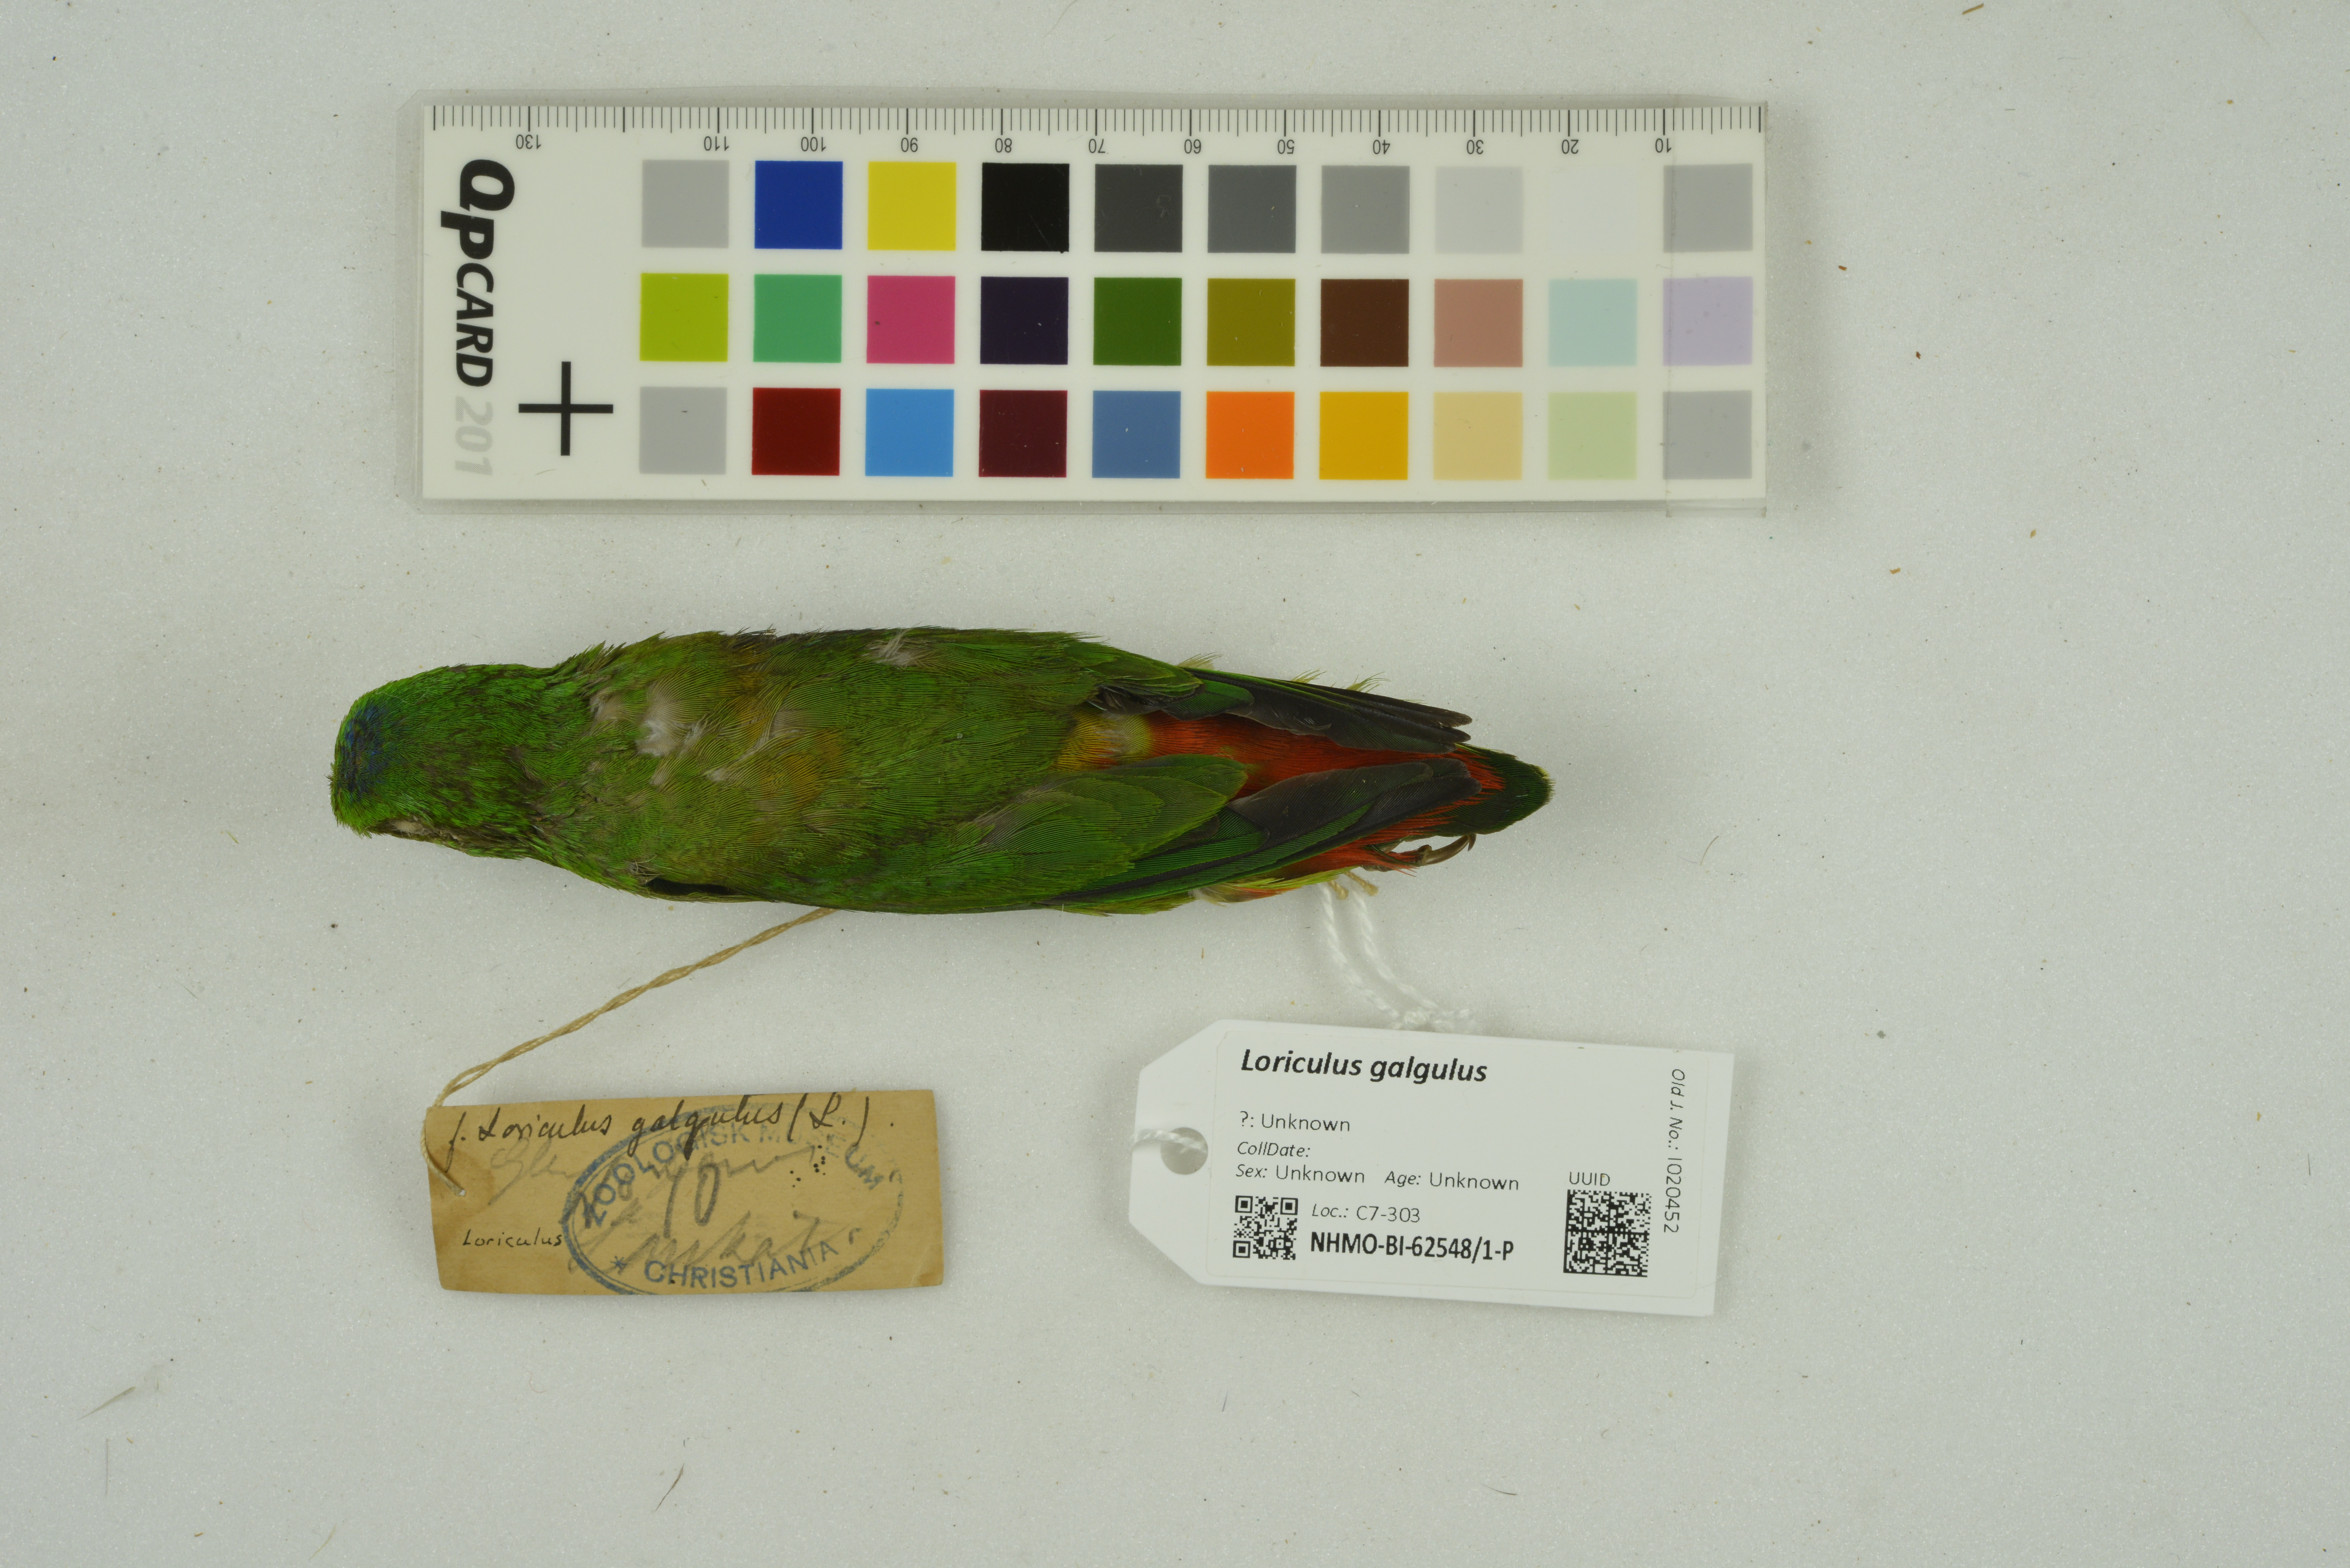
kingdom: Animalia
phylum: Chordata
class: Aves
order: Psittaciformes
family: Psittacidae
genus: Loriculus
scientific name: Loriculus galgulus
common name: Blue-crowned hanging parrot
